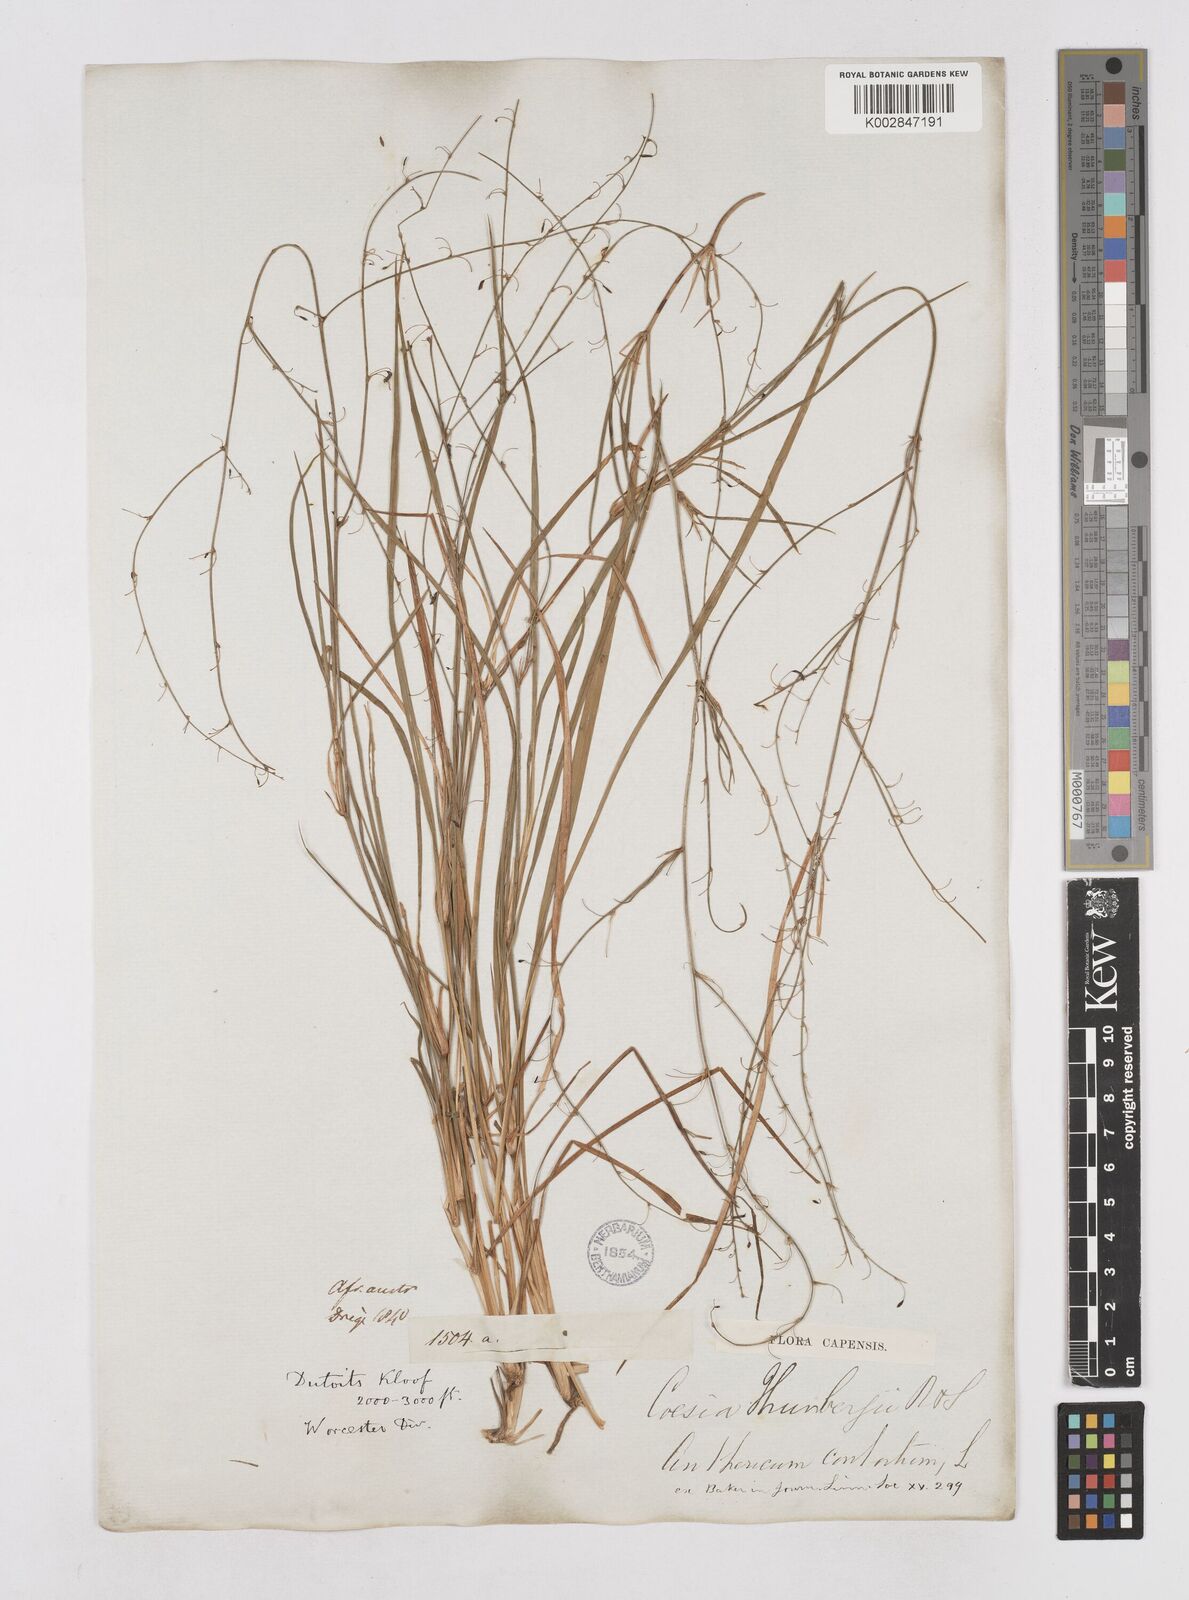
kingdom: Plantae
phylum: Tracheophyta
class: Liliopsida
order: Asparagales
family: Asphodelaceae
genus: Caesia
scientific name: Caesia contorta
